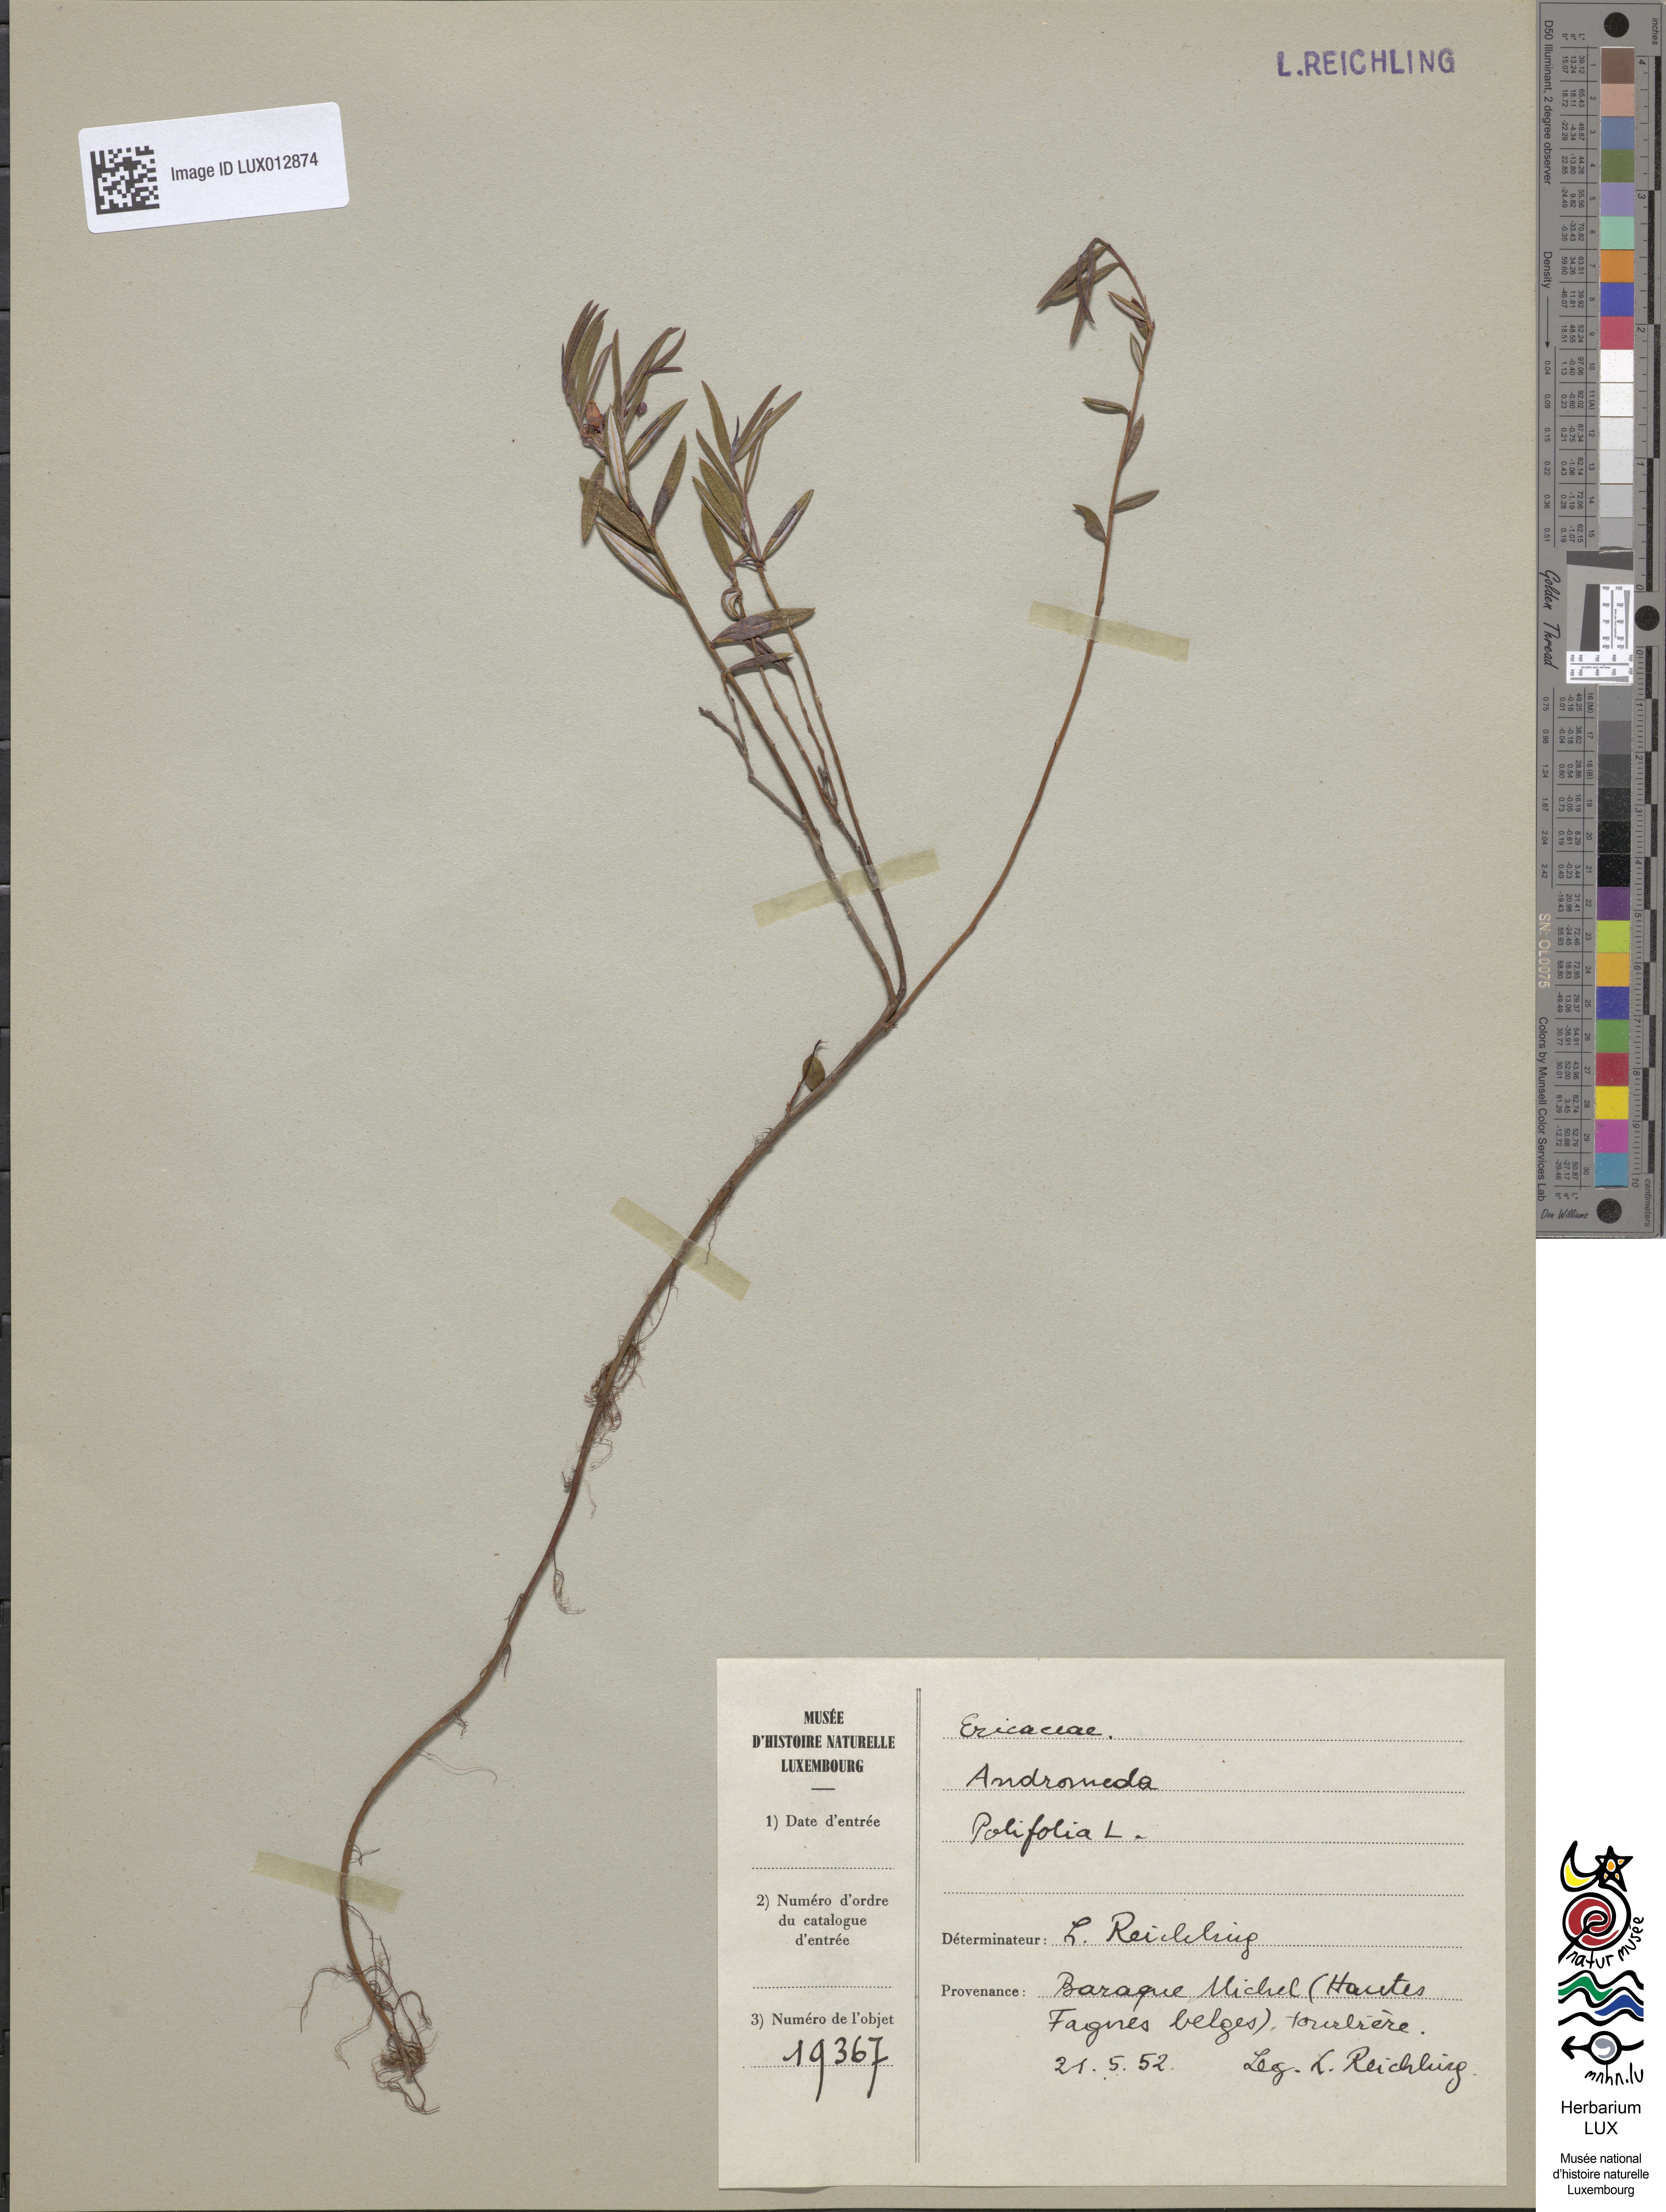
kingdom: Plantae
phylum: Tracheophyta
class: Magnoliopsida
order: Ericales
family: Ericaceae
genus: Andromeda
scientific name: Andromeda polifolia
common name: Bog-rosemary
